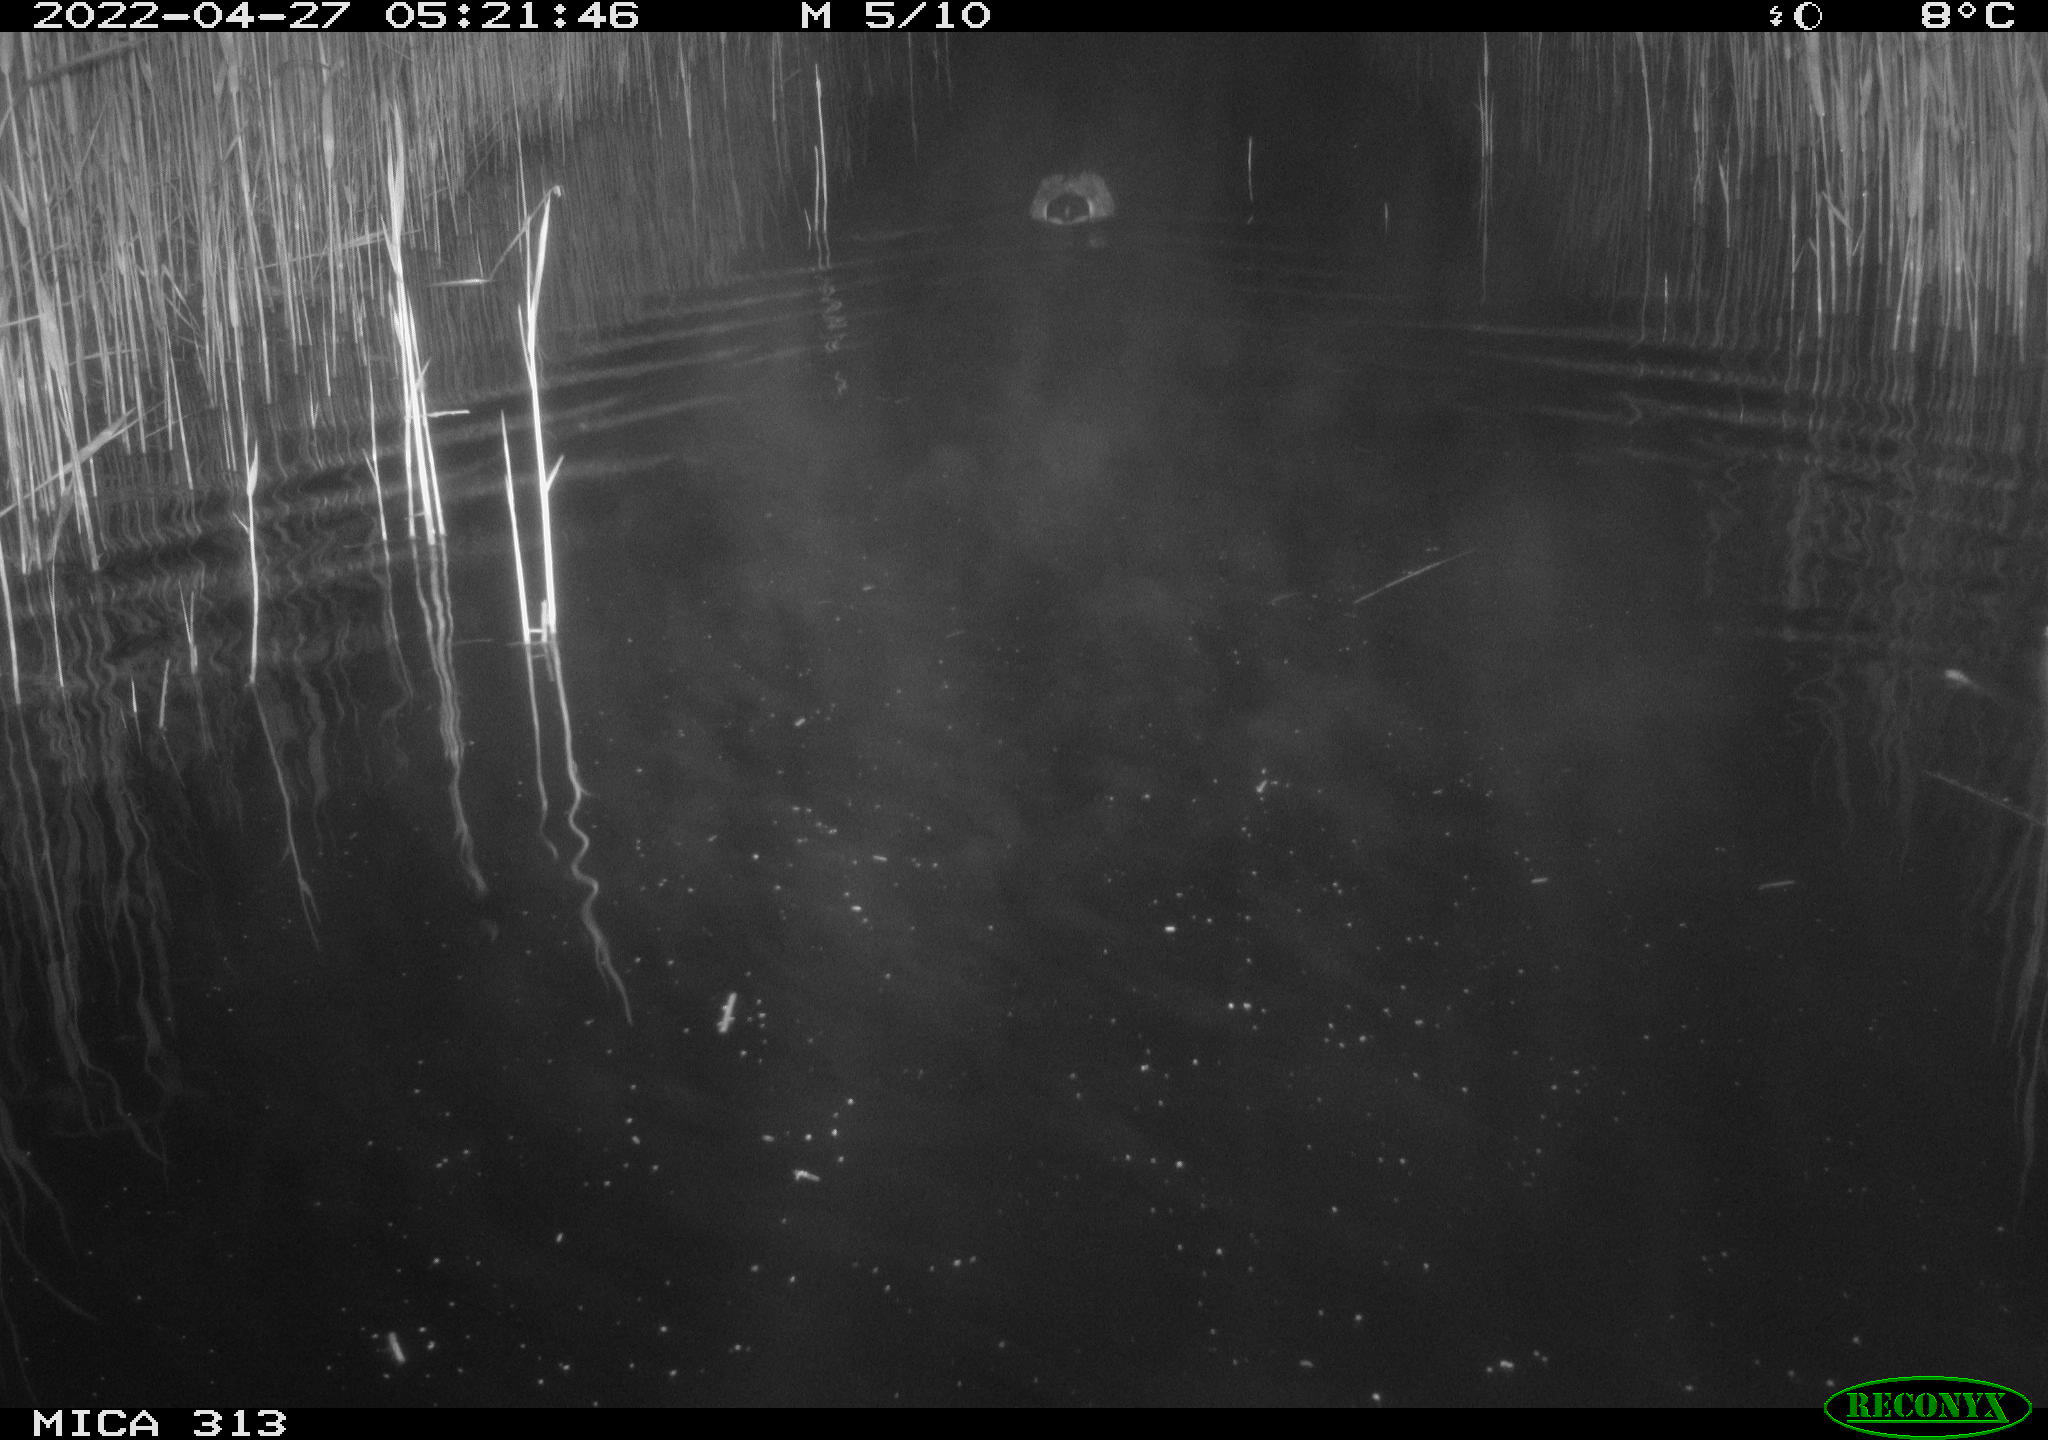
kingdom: Animalia
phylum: Chordata
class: Aves
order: Anseriformes
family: Anatidae
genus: Anas
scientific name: Anas platyrhynchos
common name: Mallard
